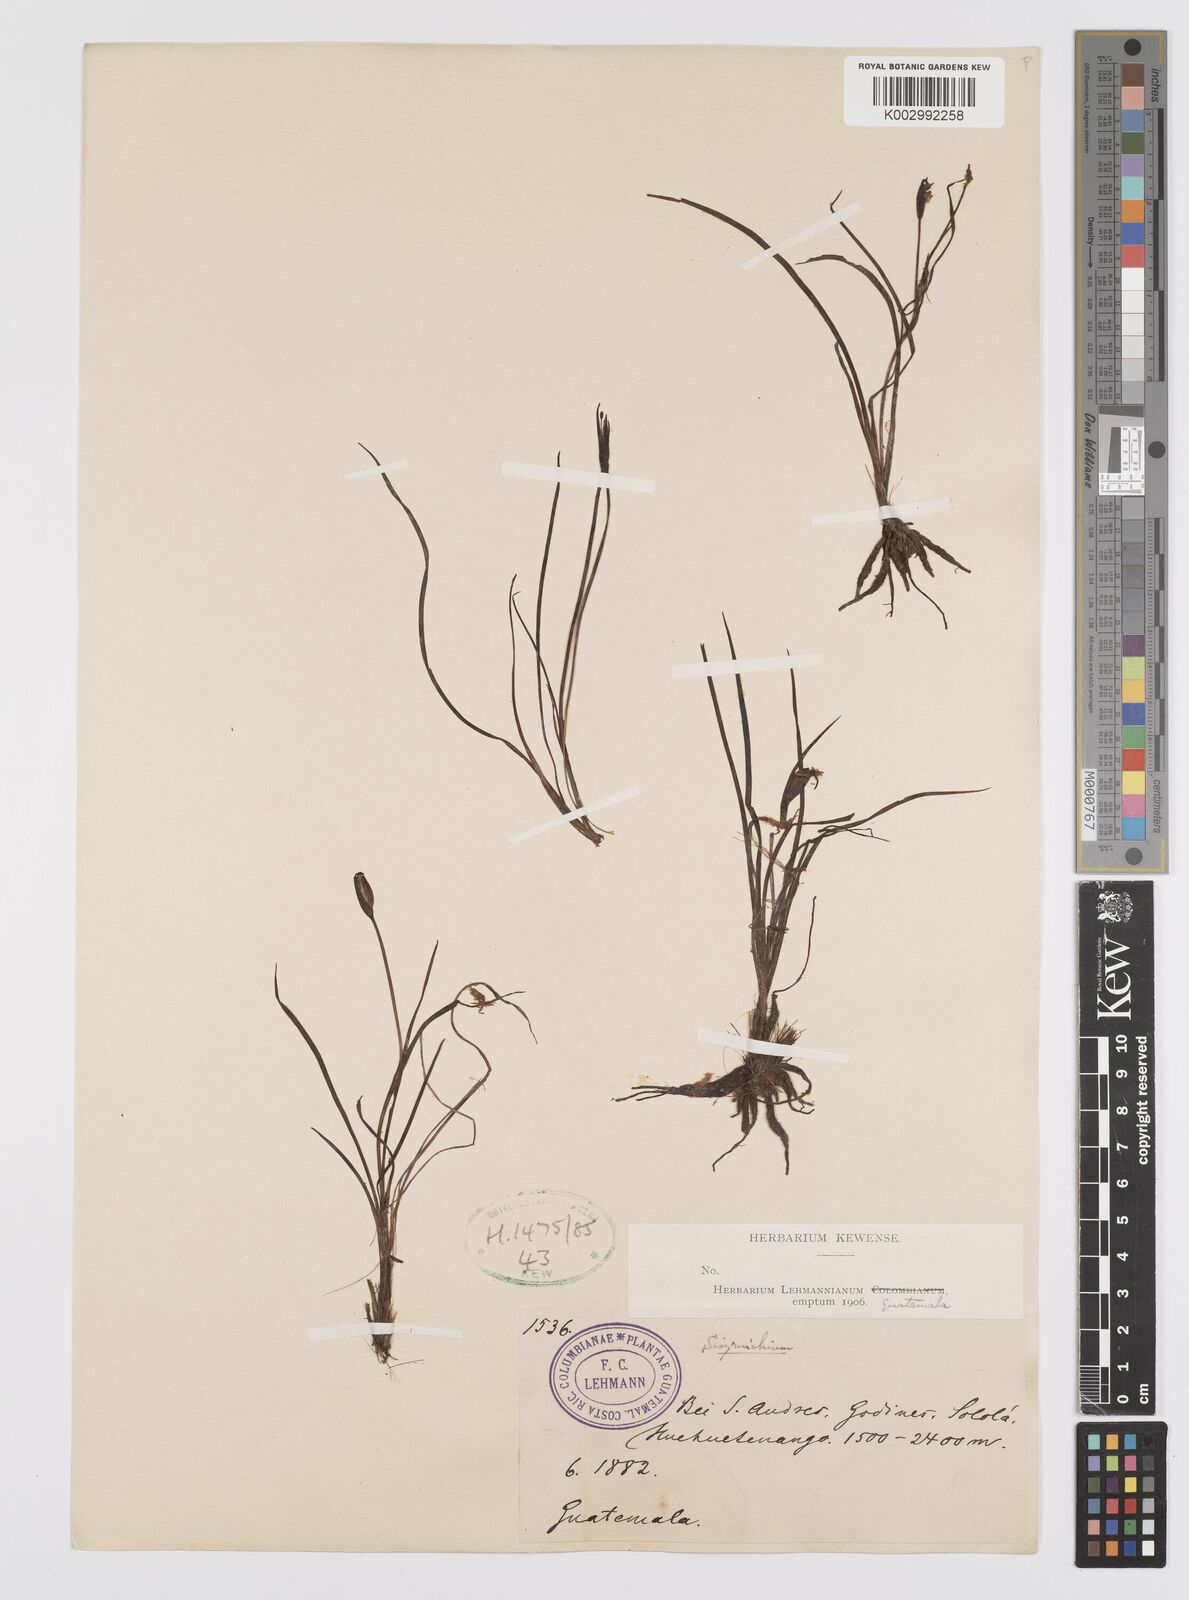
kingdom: Plantae
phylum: Tracheophyta
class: Liliopsida
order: Asparagales
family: Iridaceae
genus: Sisyrinchium
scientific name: Sisyrinchium
